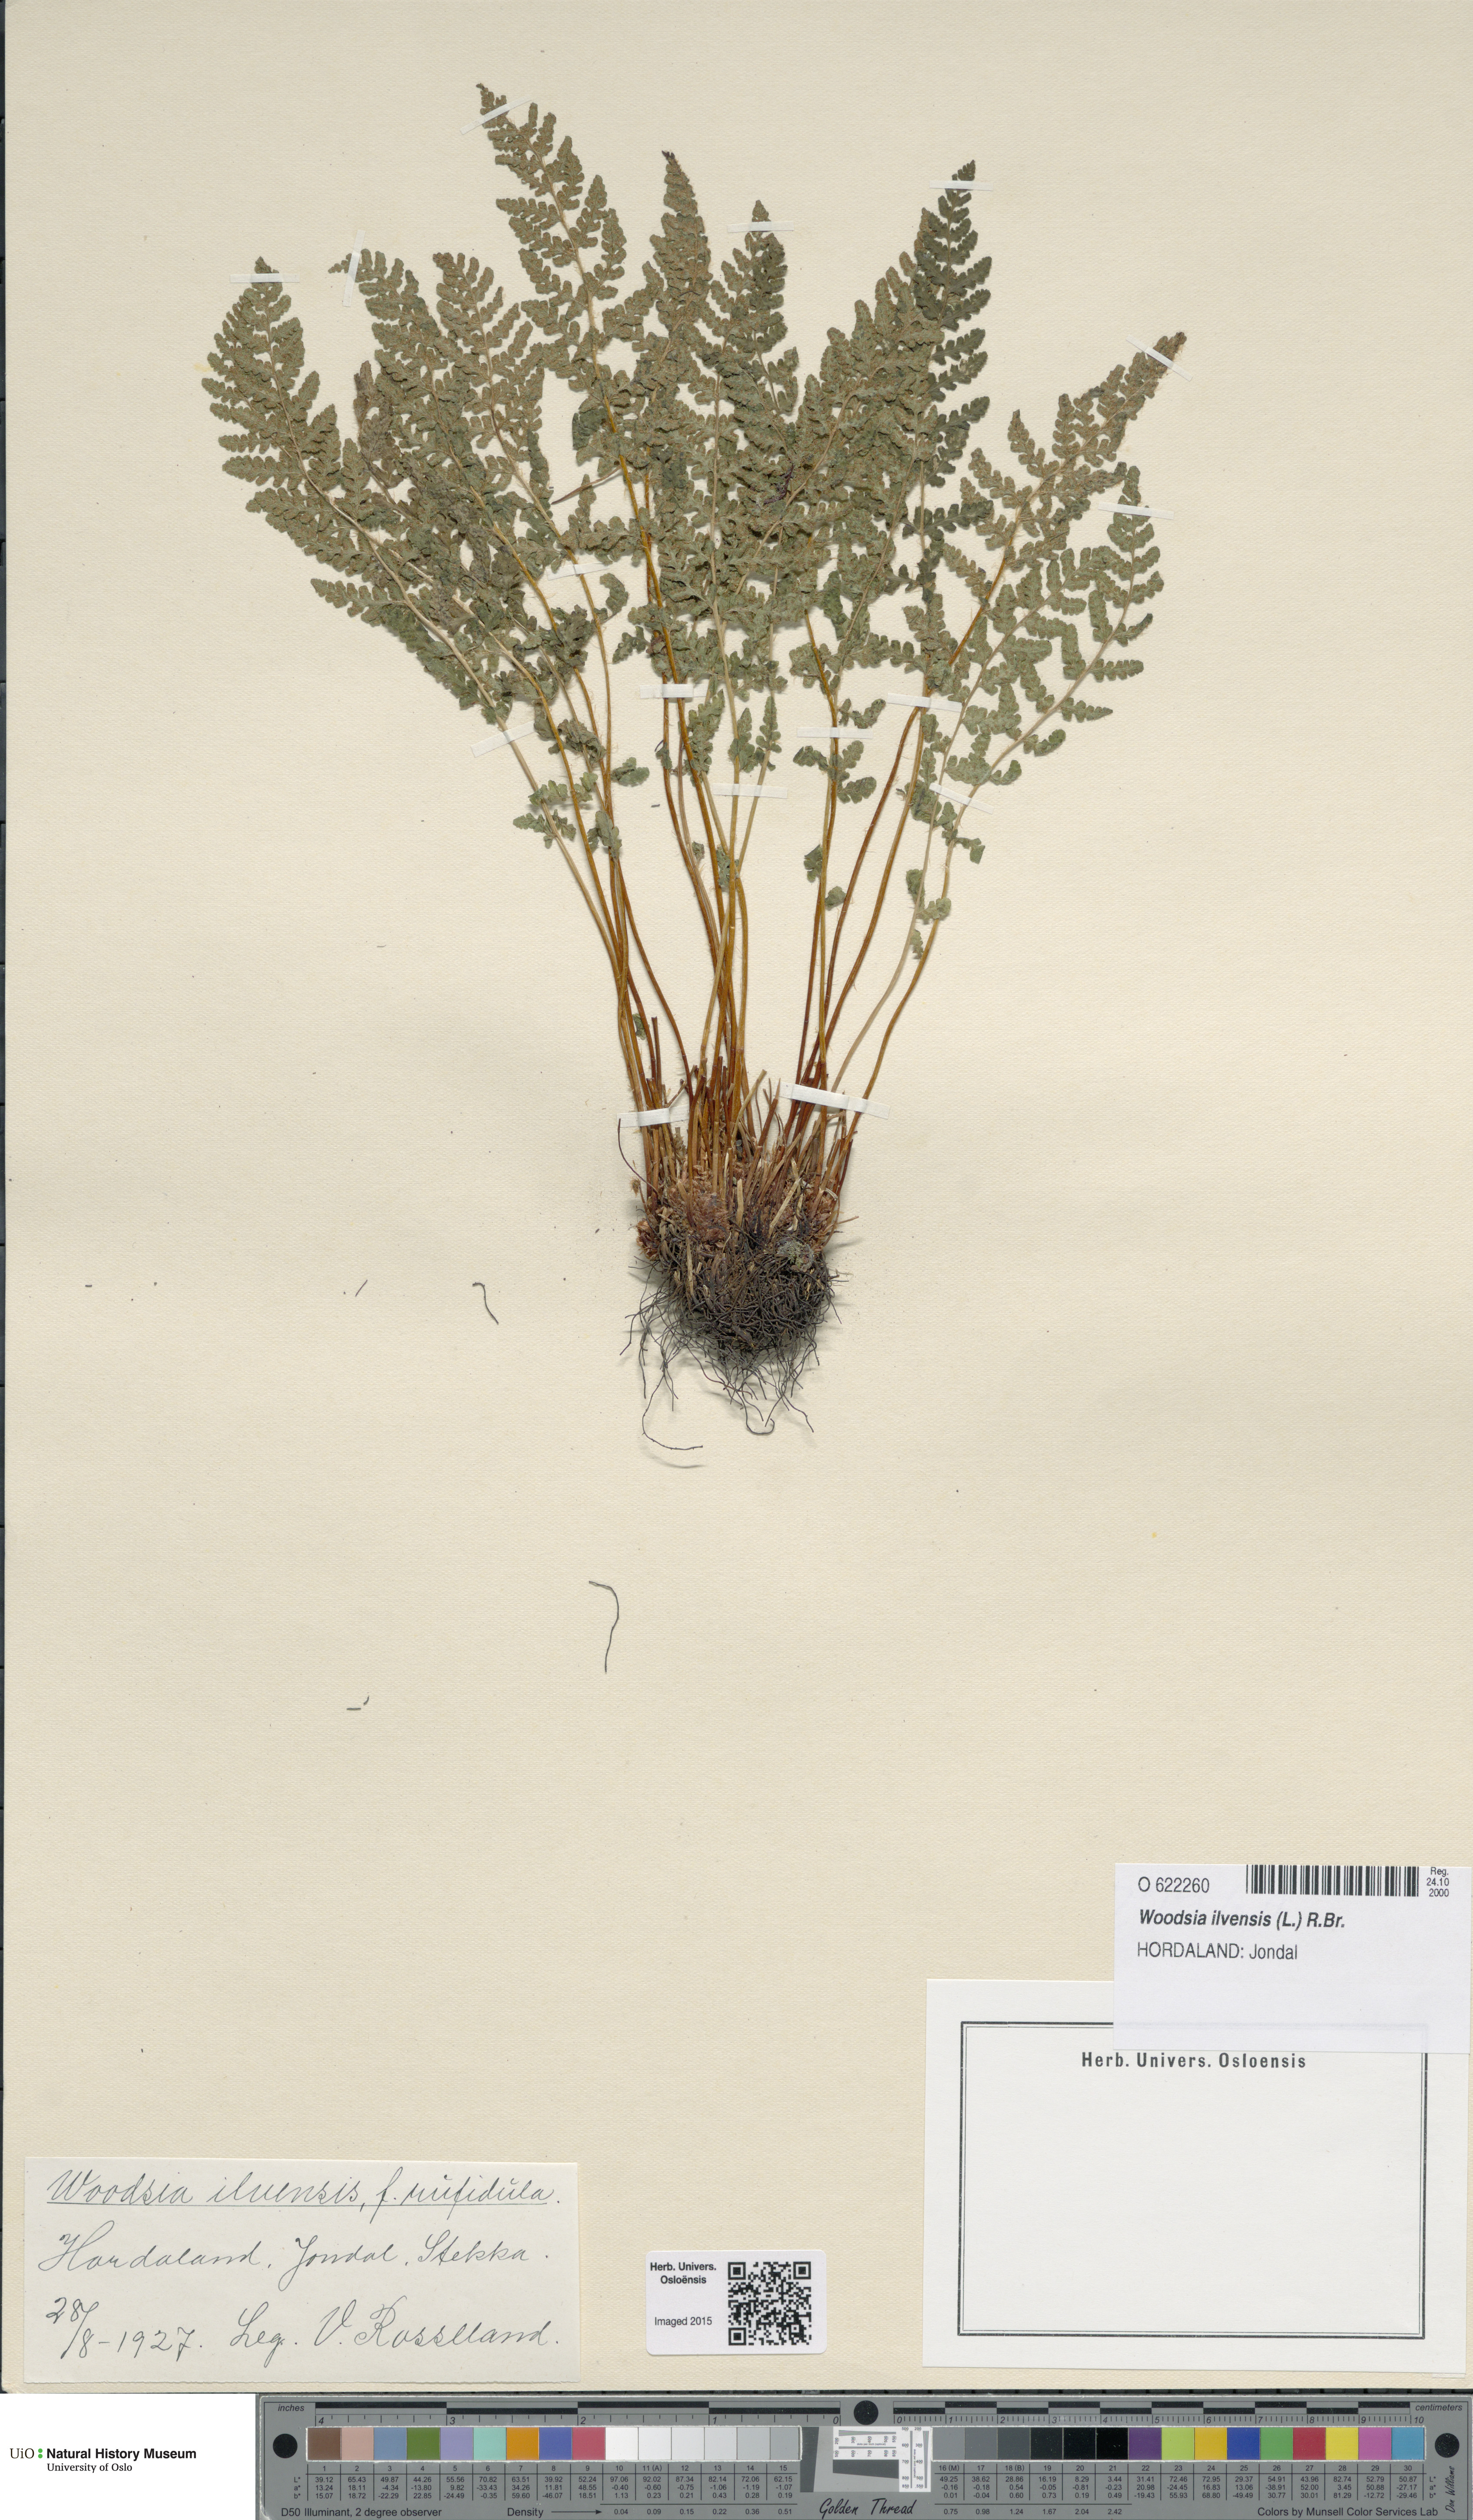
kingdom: Plantae
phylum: Tracheophyta
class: Polypodiopsida
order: Polypodiales
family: Woodsiaceae
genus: Woodsia
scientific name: Woodsia ilvensis
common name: Fragrant woodsia
